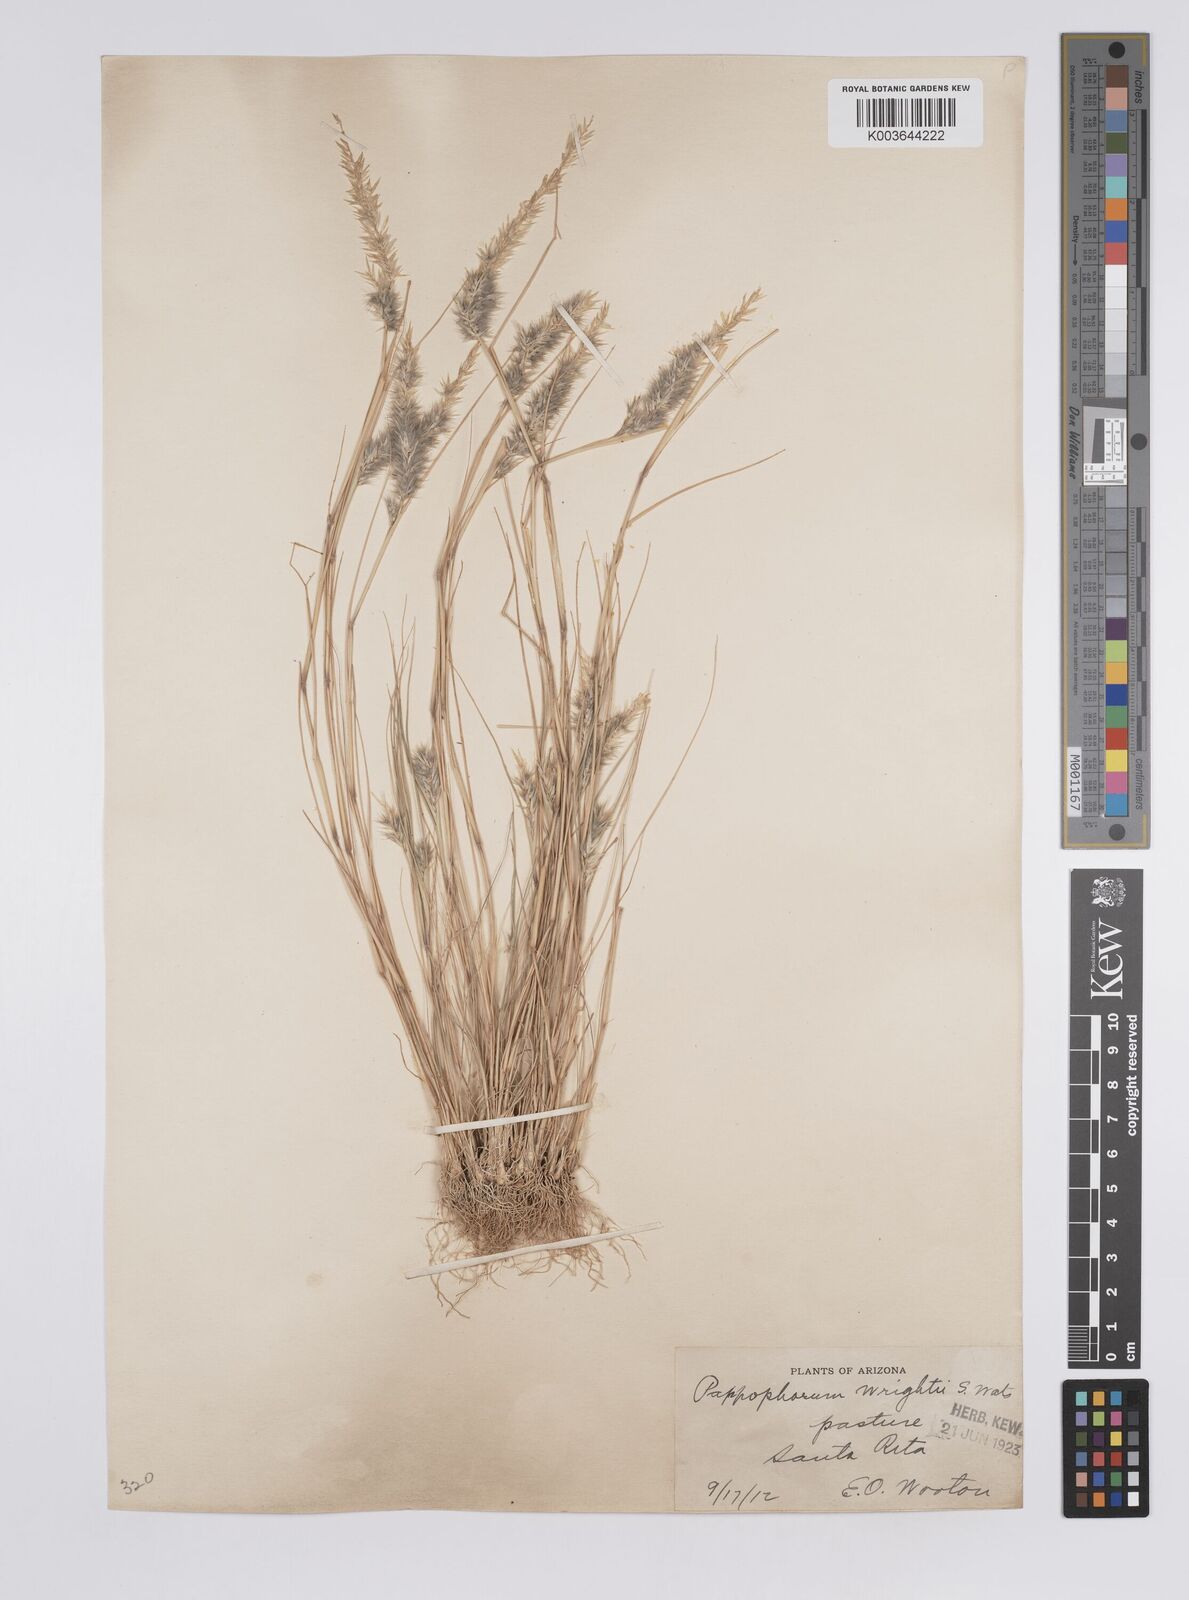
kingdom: Plantae
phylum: Tracheophyta
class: Liliopsida
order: Poales
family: Poaceae
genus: Enneapogon
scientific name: Enneapogon desvauxii
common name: Feather pappus grass
